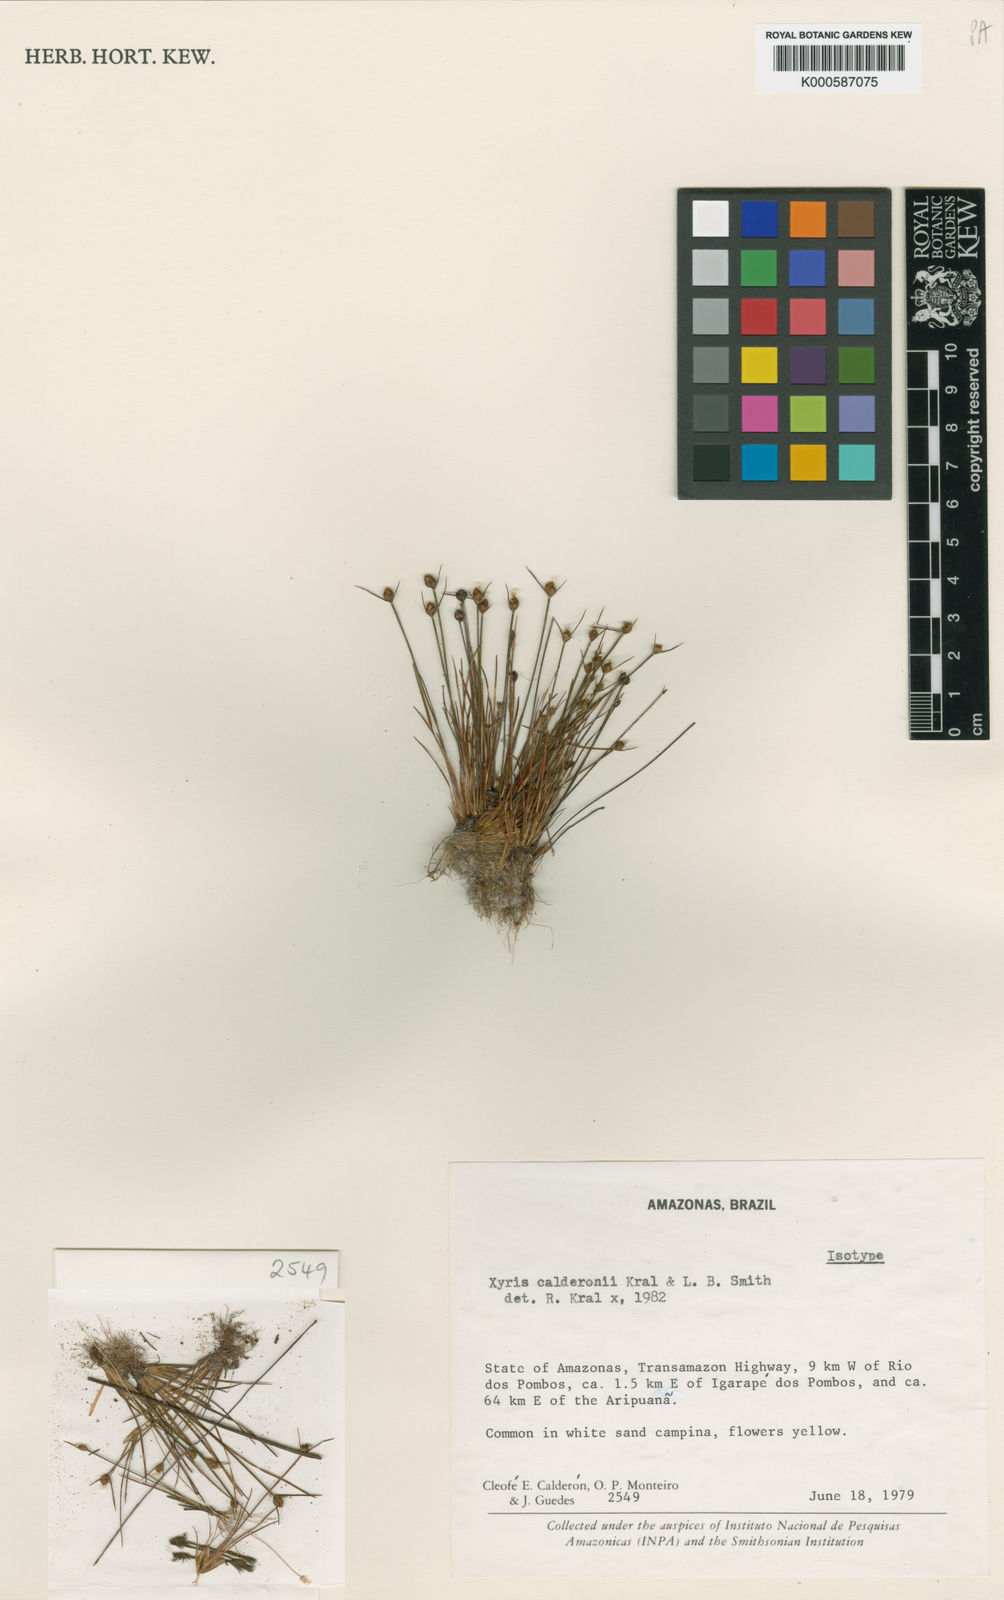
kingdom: Plantae
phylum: Tracheophyta
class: Liliopsida
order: Poales
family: Xyridaceae
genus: Xyris
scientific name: Xyris calderonii
